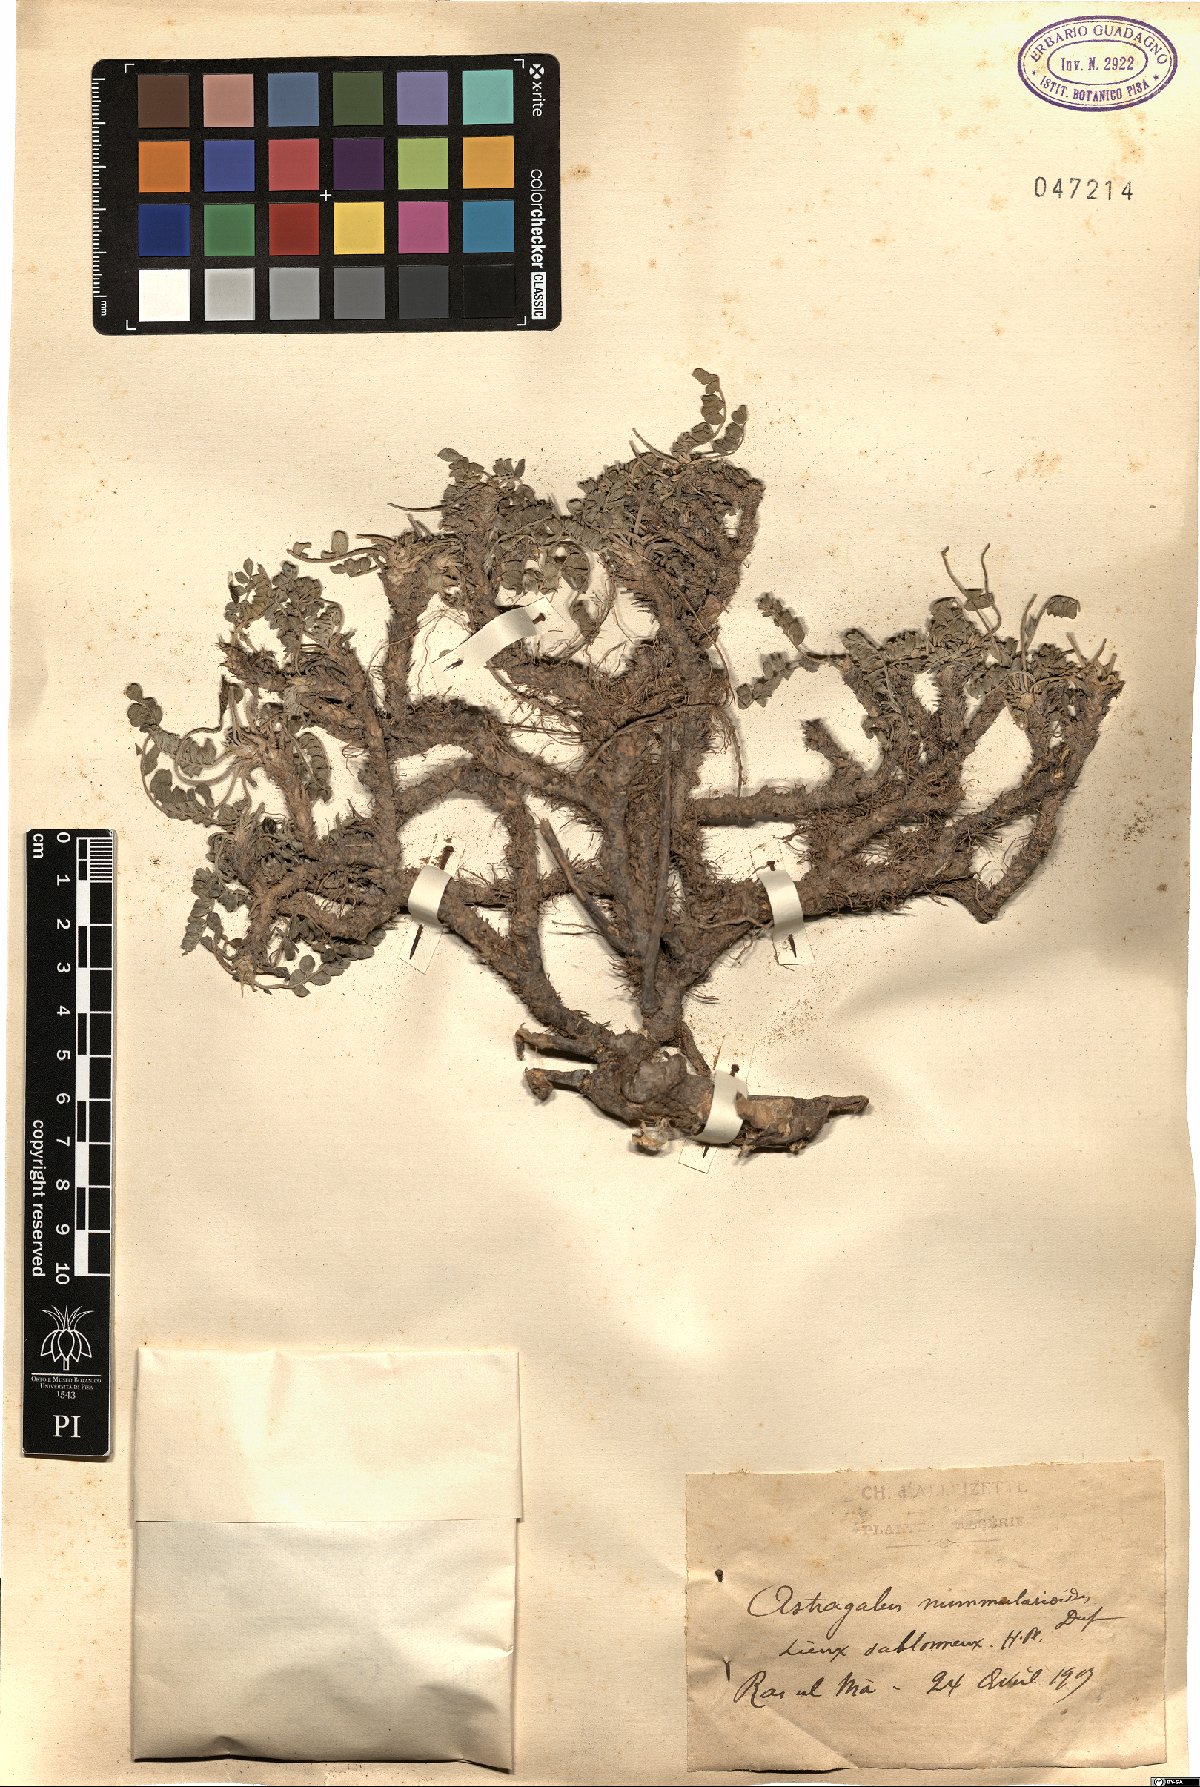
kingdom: Plantae
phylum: Tracheophyta
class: Magnoliopsida
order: Fabales
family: Fabaceae
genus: Astragalus
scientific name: Astragalus incanus
